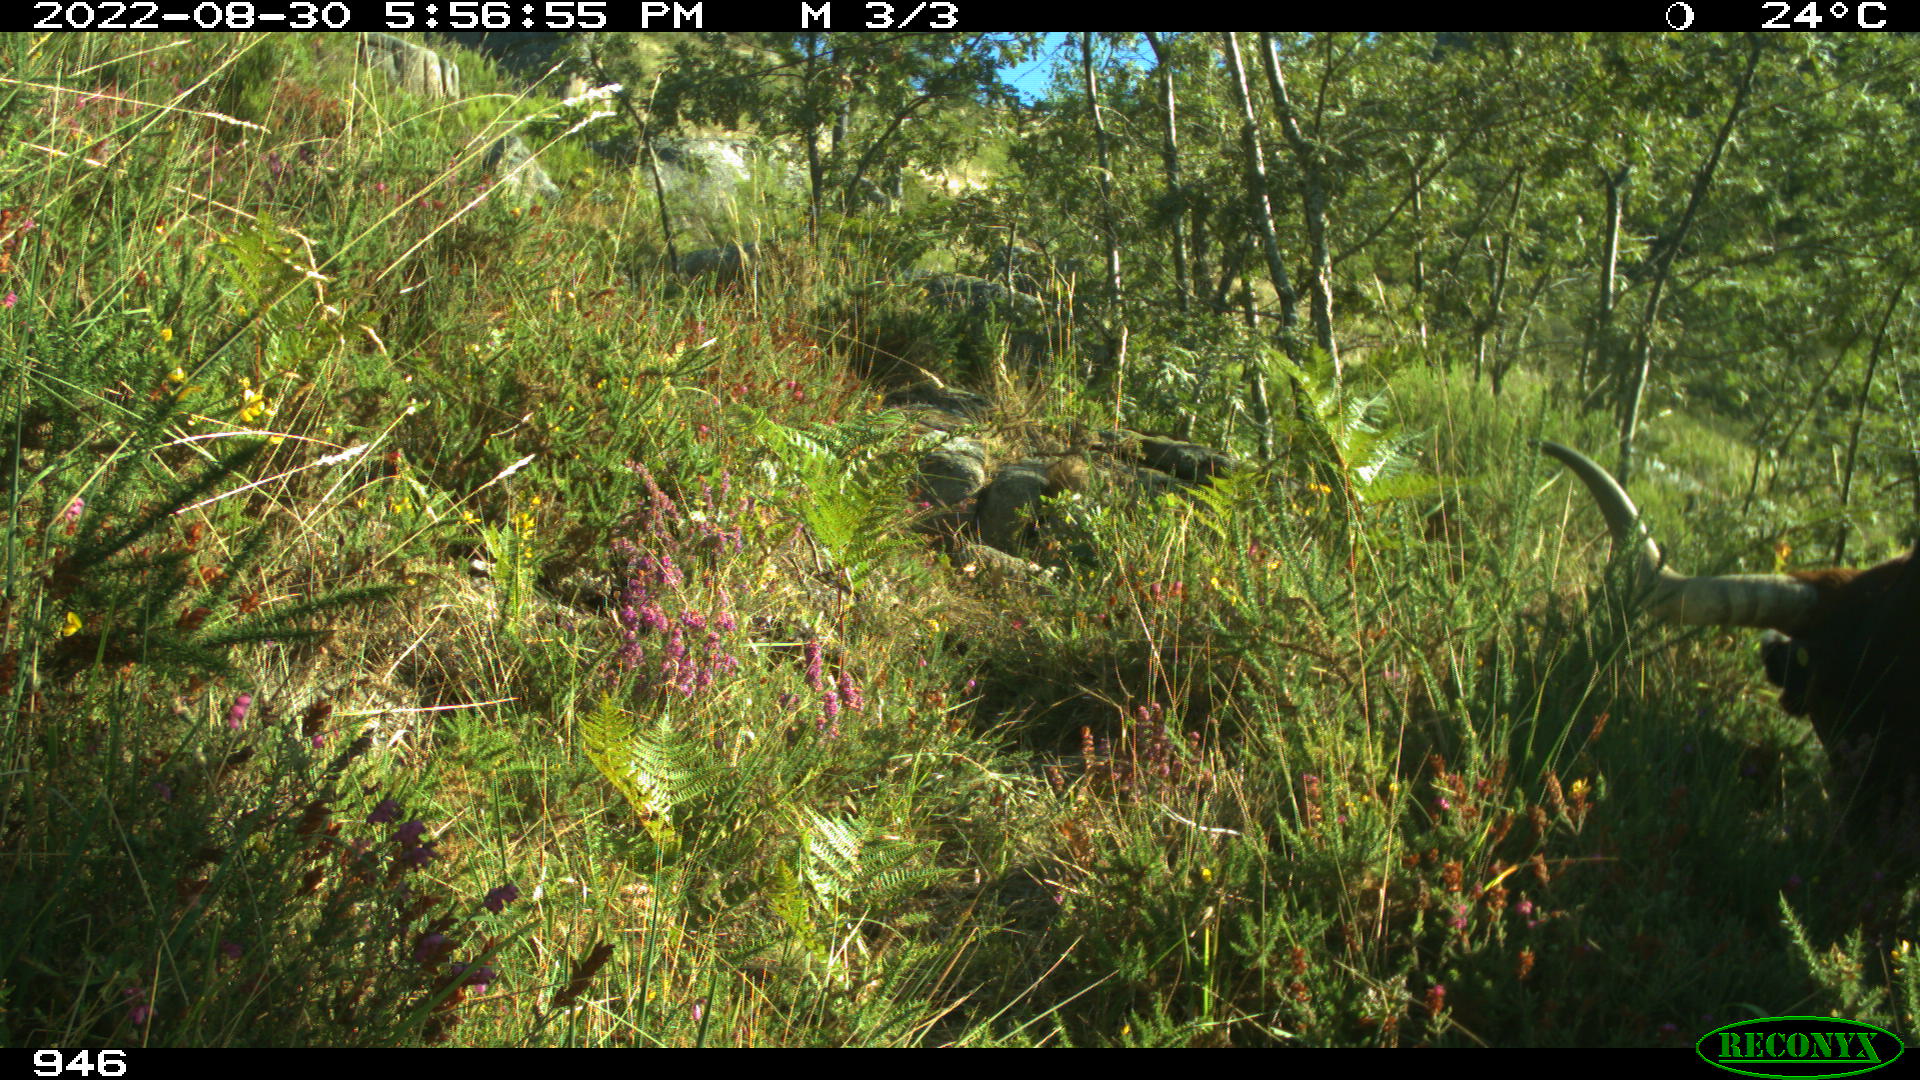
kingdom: Animalia
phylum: Chordata
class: Mammalia
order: Artiodactyla
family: Bovidae
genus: Bos
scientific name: Bos taurus
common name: Domesticated cattle
